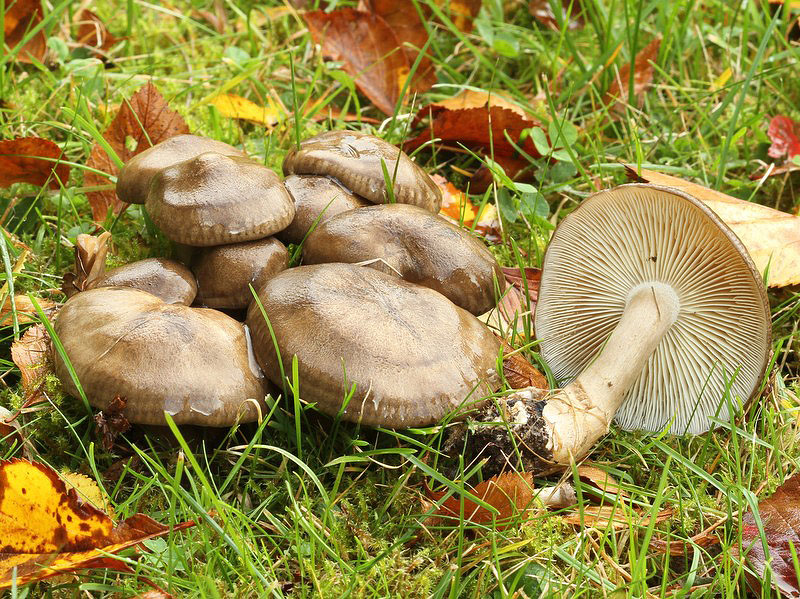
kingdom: Fungi
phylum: Basidiomycota
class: Agaricomycetes
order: Agaricales
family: Lyophyllaceae
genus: Lyophyllum
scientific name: Lyophyllum decastes
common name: røggrå gråblad
